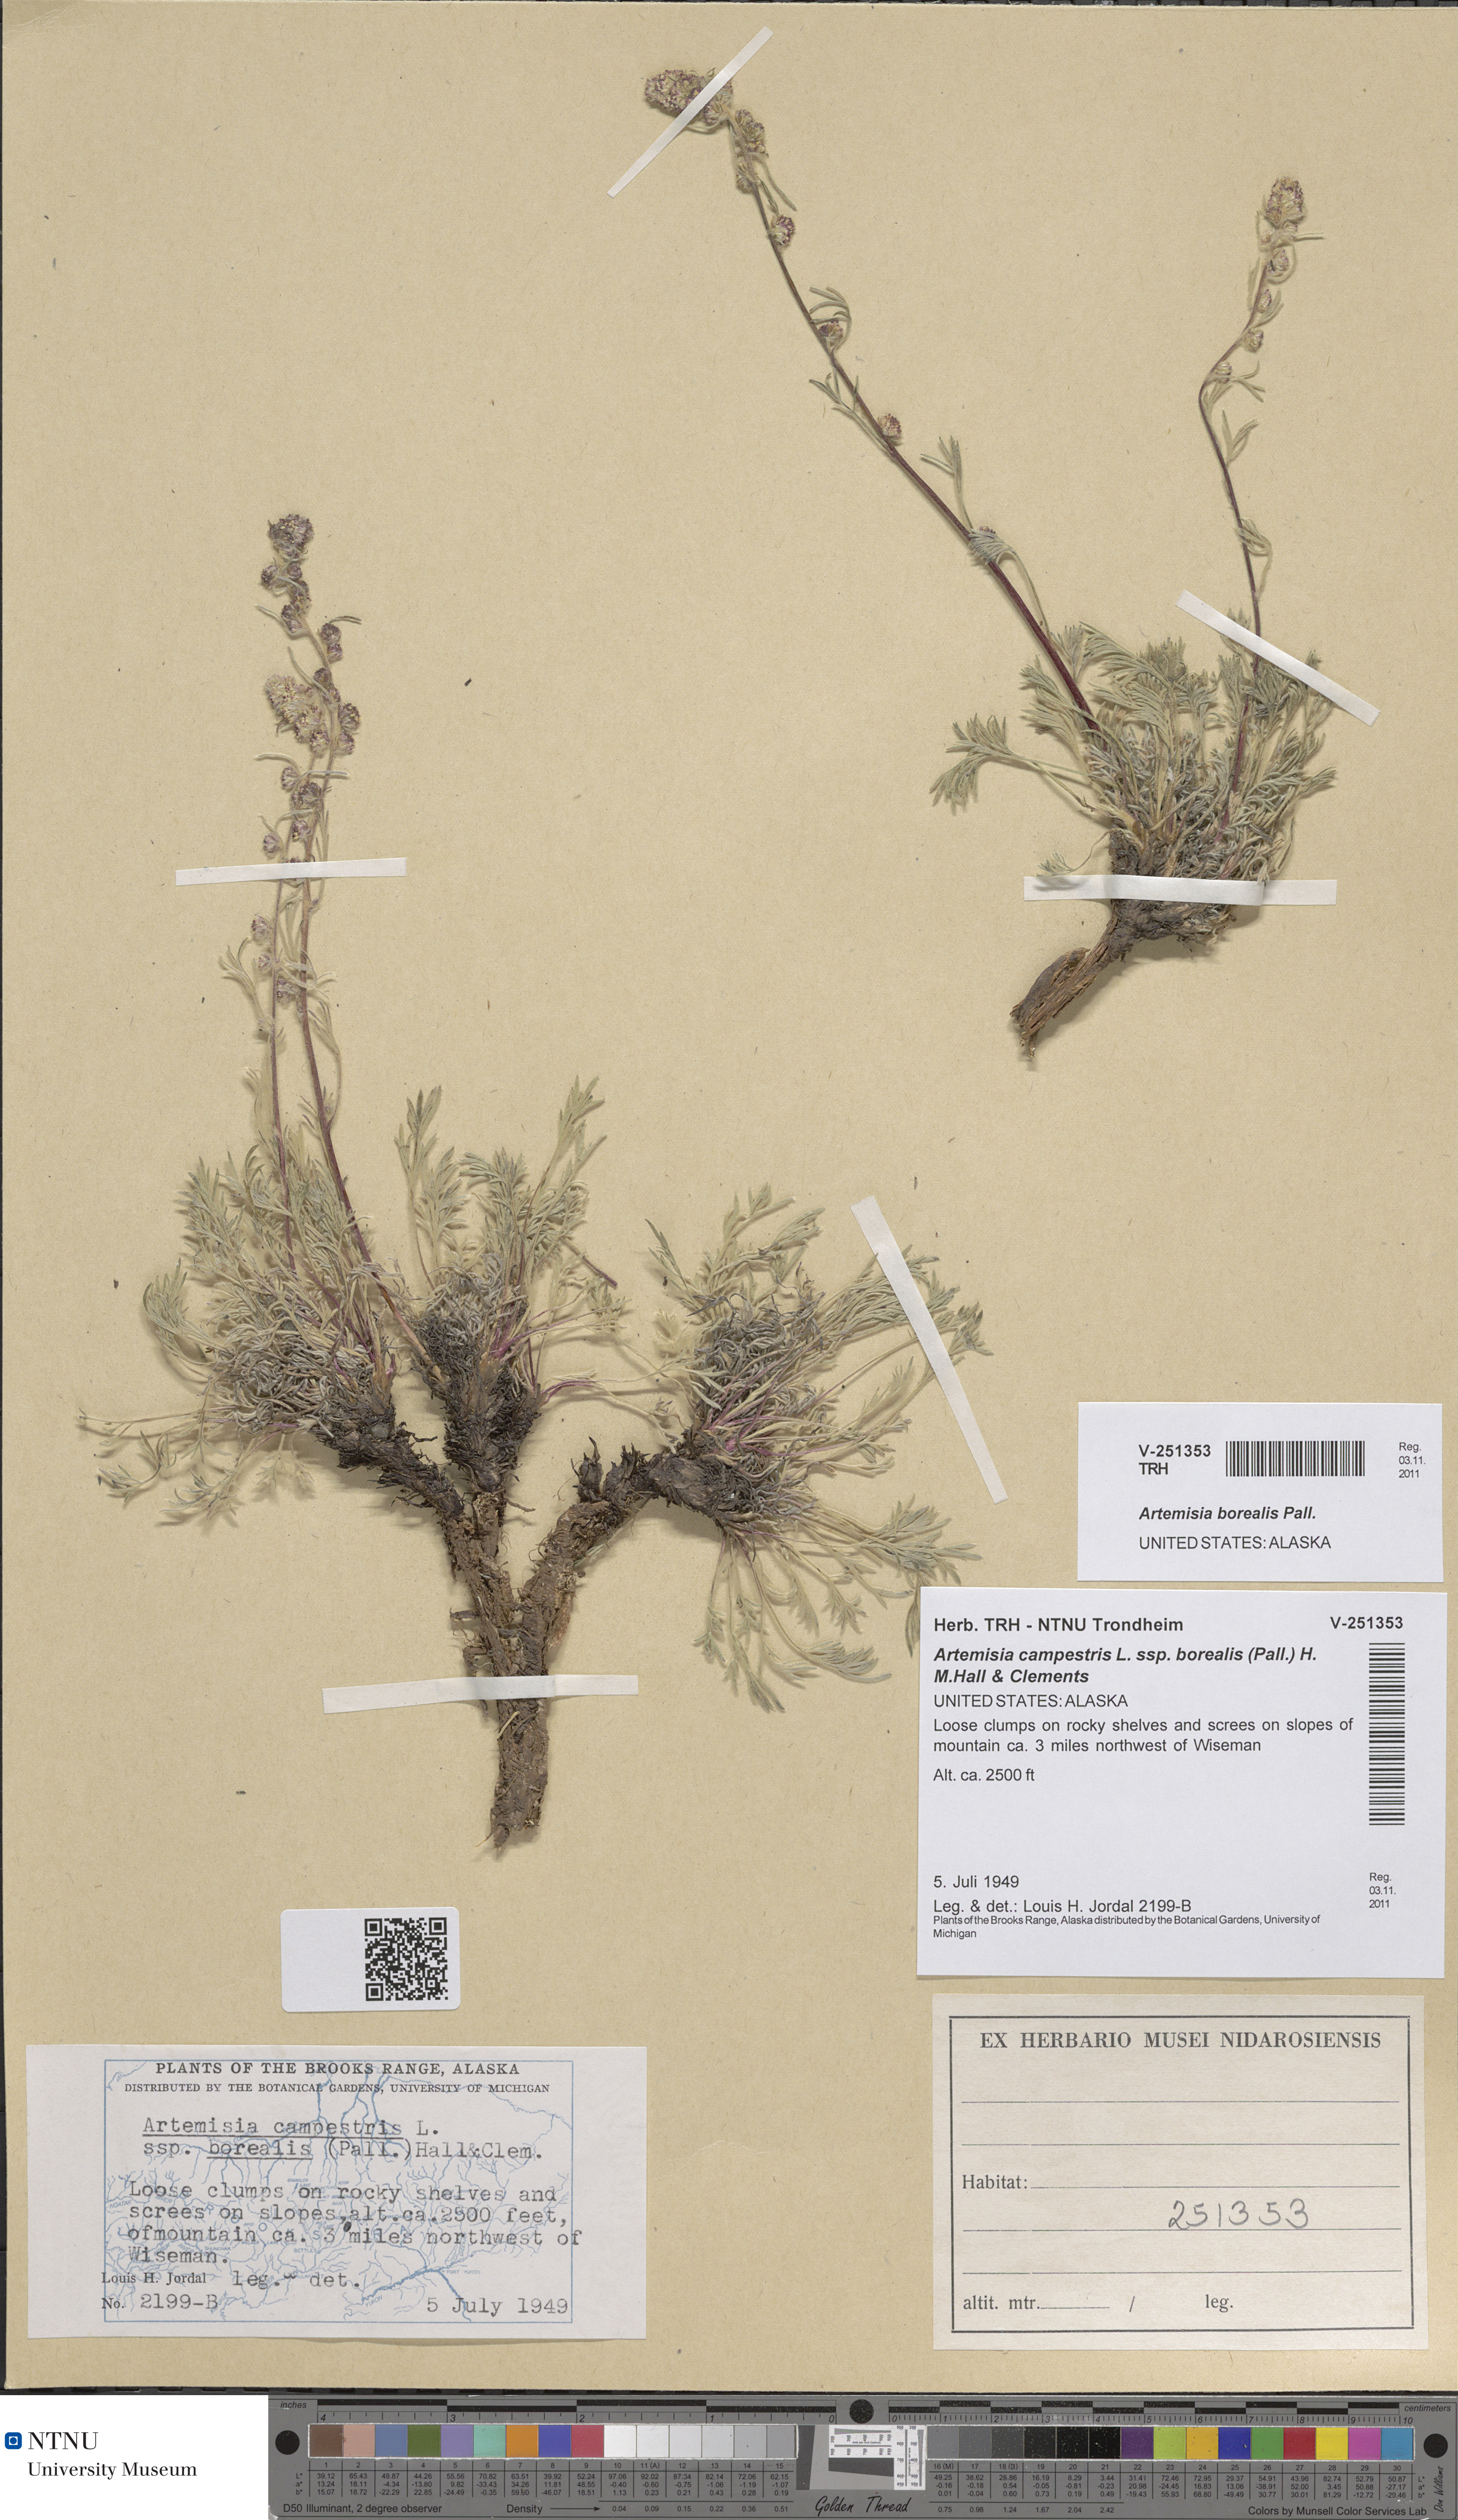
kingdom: Plantae
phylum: Tracheophyta
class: Magnoliopsida
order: Asterales
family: Asteraceae
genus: Artemisia
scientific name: Artemisia borealis
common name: Boreal sage
